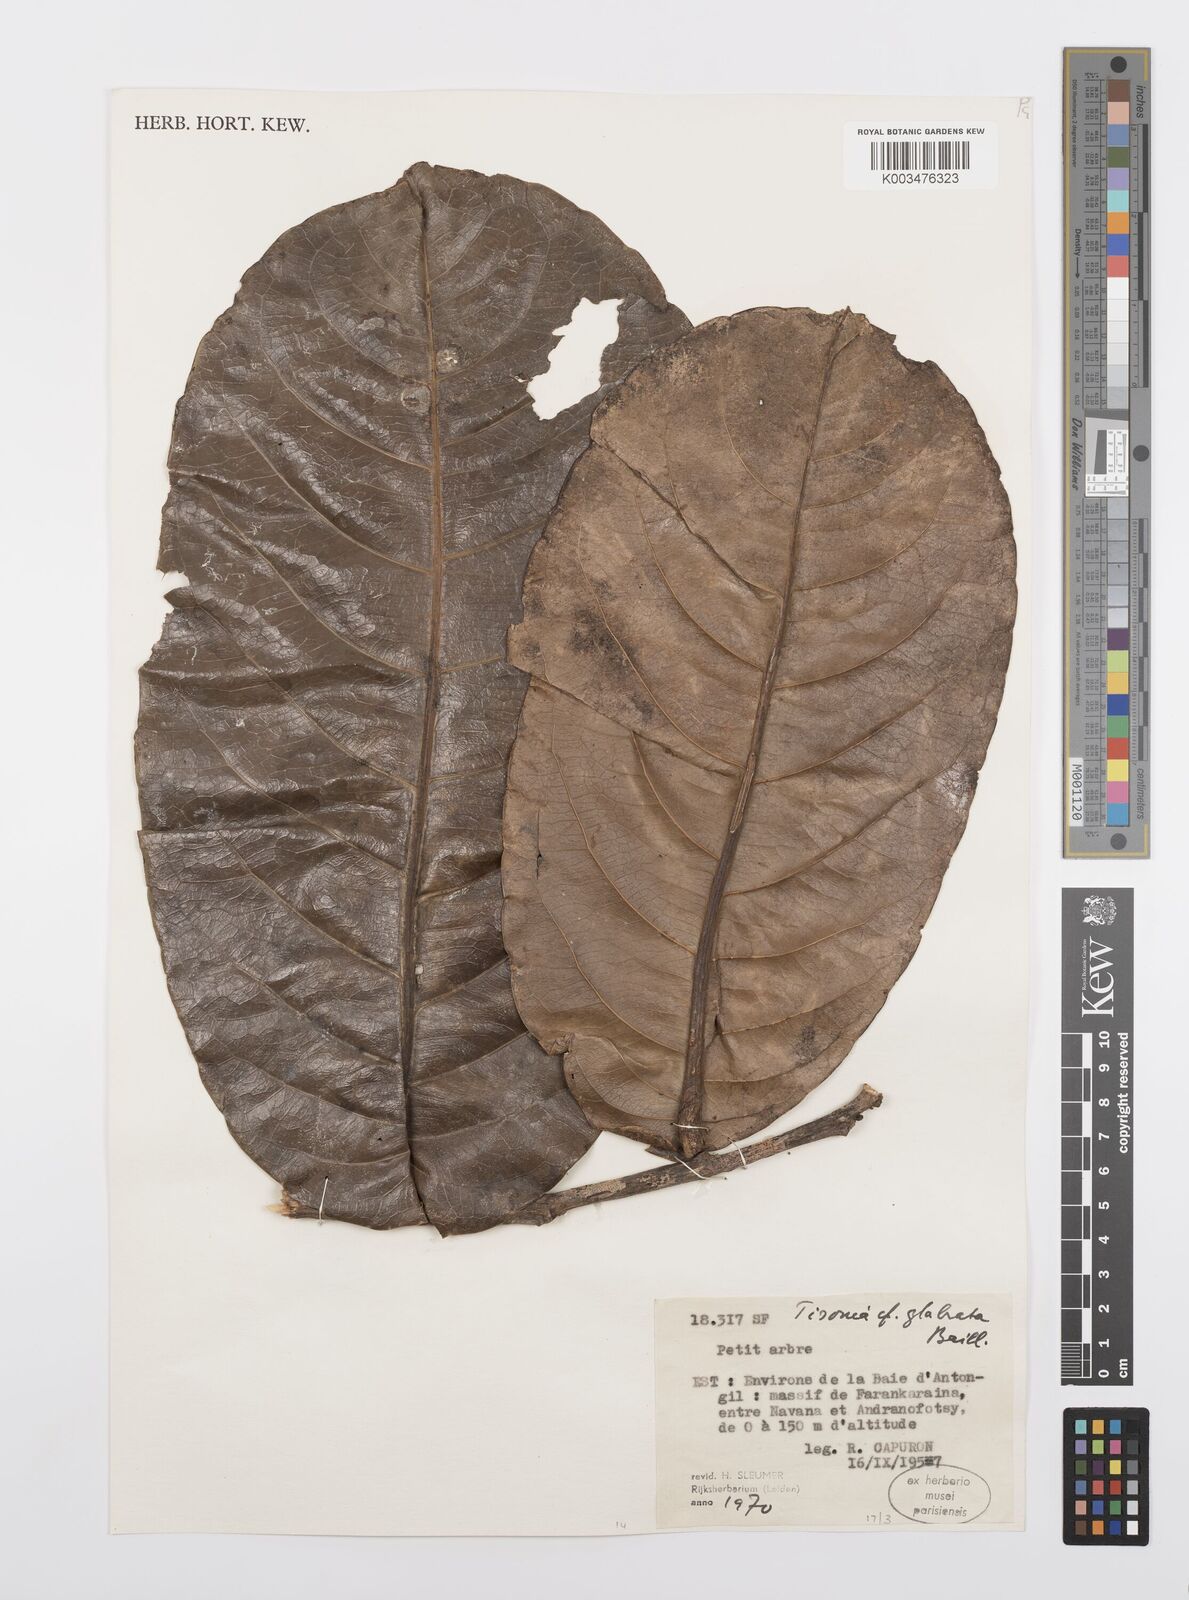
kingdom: Plantae
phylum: Tracheophyta
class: Magnoliopsida
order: Malpighiales
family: Salicaceae
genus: Tisonia
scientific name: Tisonia glabrata
